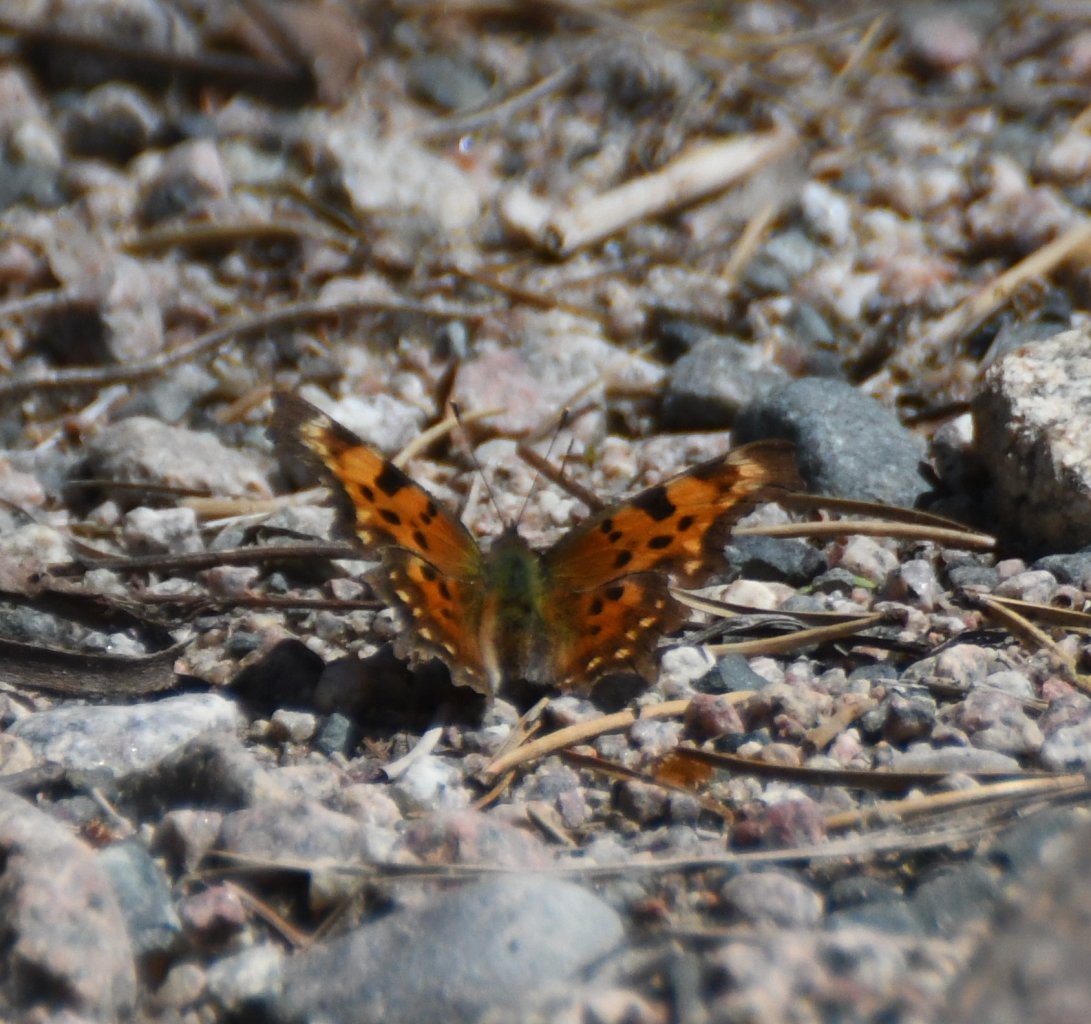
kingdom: Animalia
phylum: Arthropoda
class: Insecta
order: Lepidoptera
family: Nymphalidae
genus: Polygonia
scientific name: Polygonia faunus
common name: Green Comma
